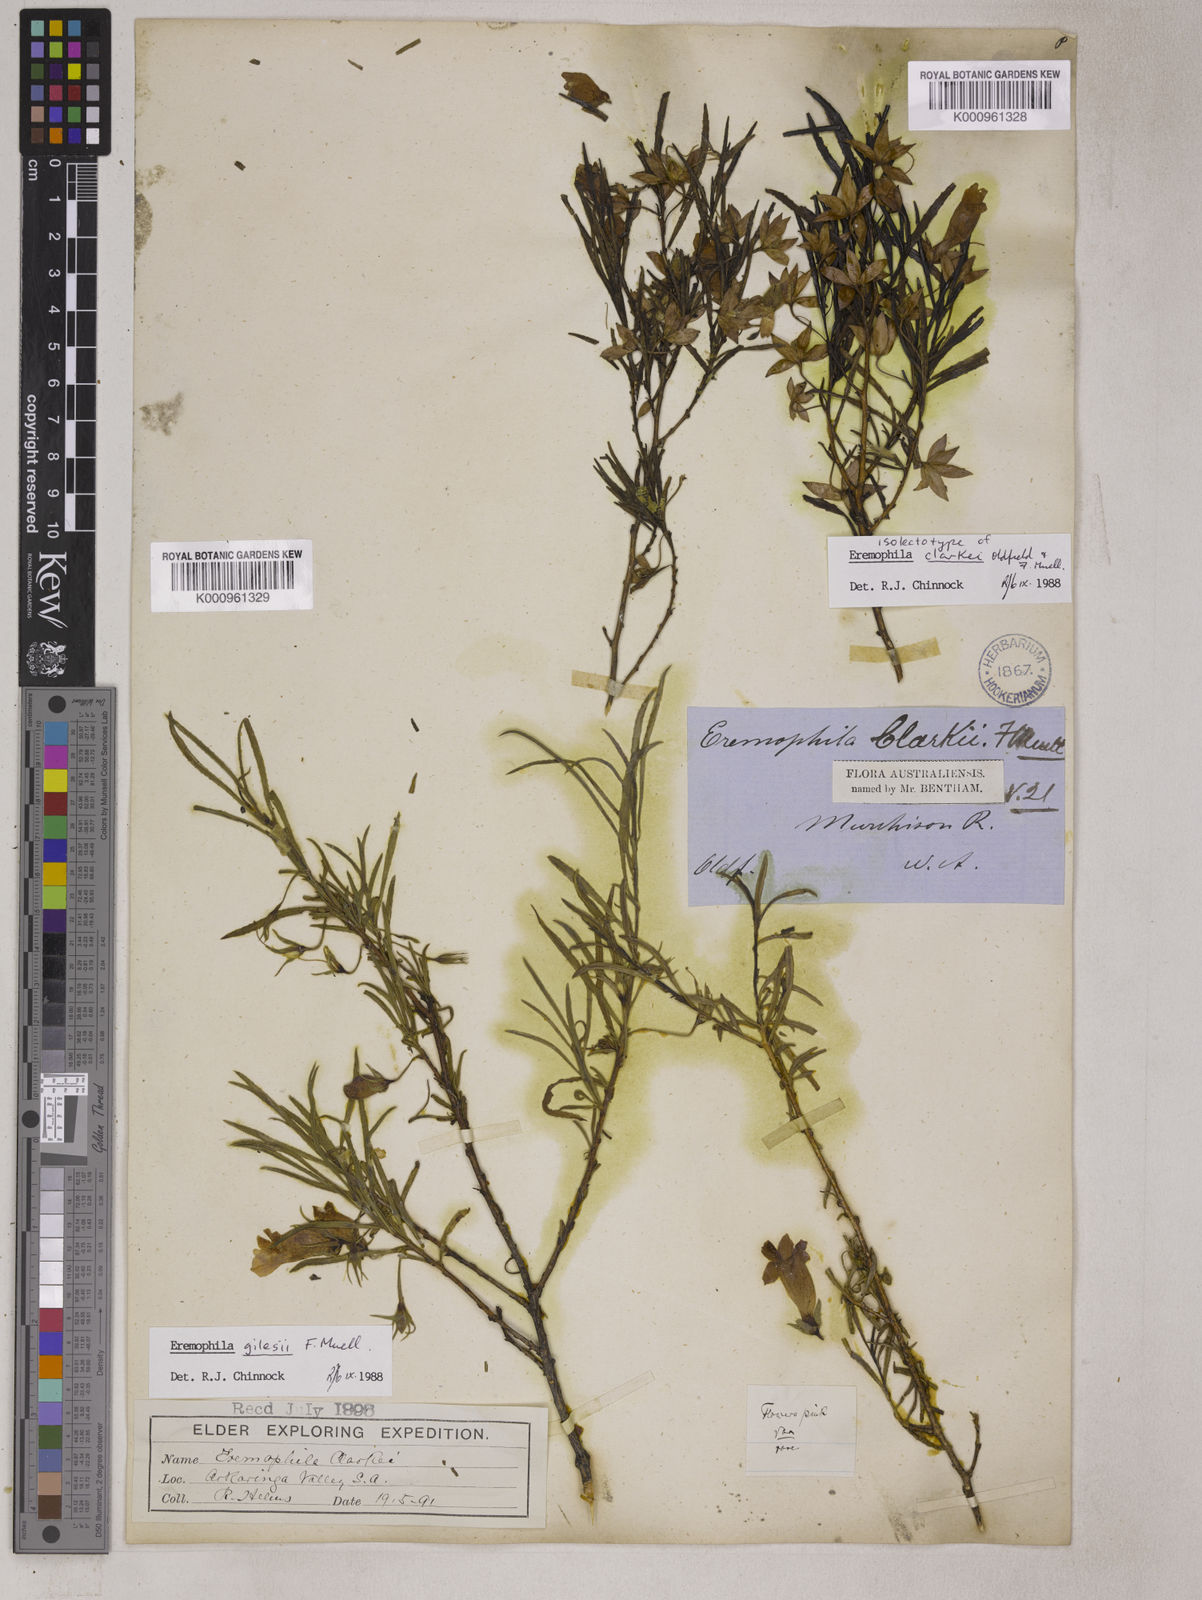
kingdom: Plantae
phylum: Tracheophyta
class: Magnoliopsida
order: Lamiales
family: Scrophulariaceae
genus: Eremophila
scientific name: Eremophila clarkei
